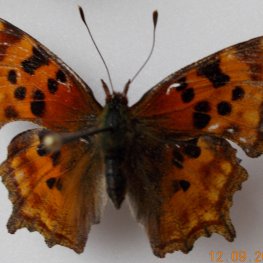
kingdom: Animalia
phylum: Arthropoda
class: Insecta
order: Lepidoptera
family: Nymphalidae
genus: Polygonia
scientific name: Polygonia satyrus
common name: Satyr Comma
